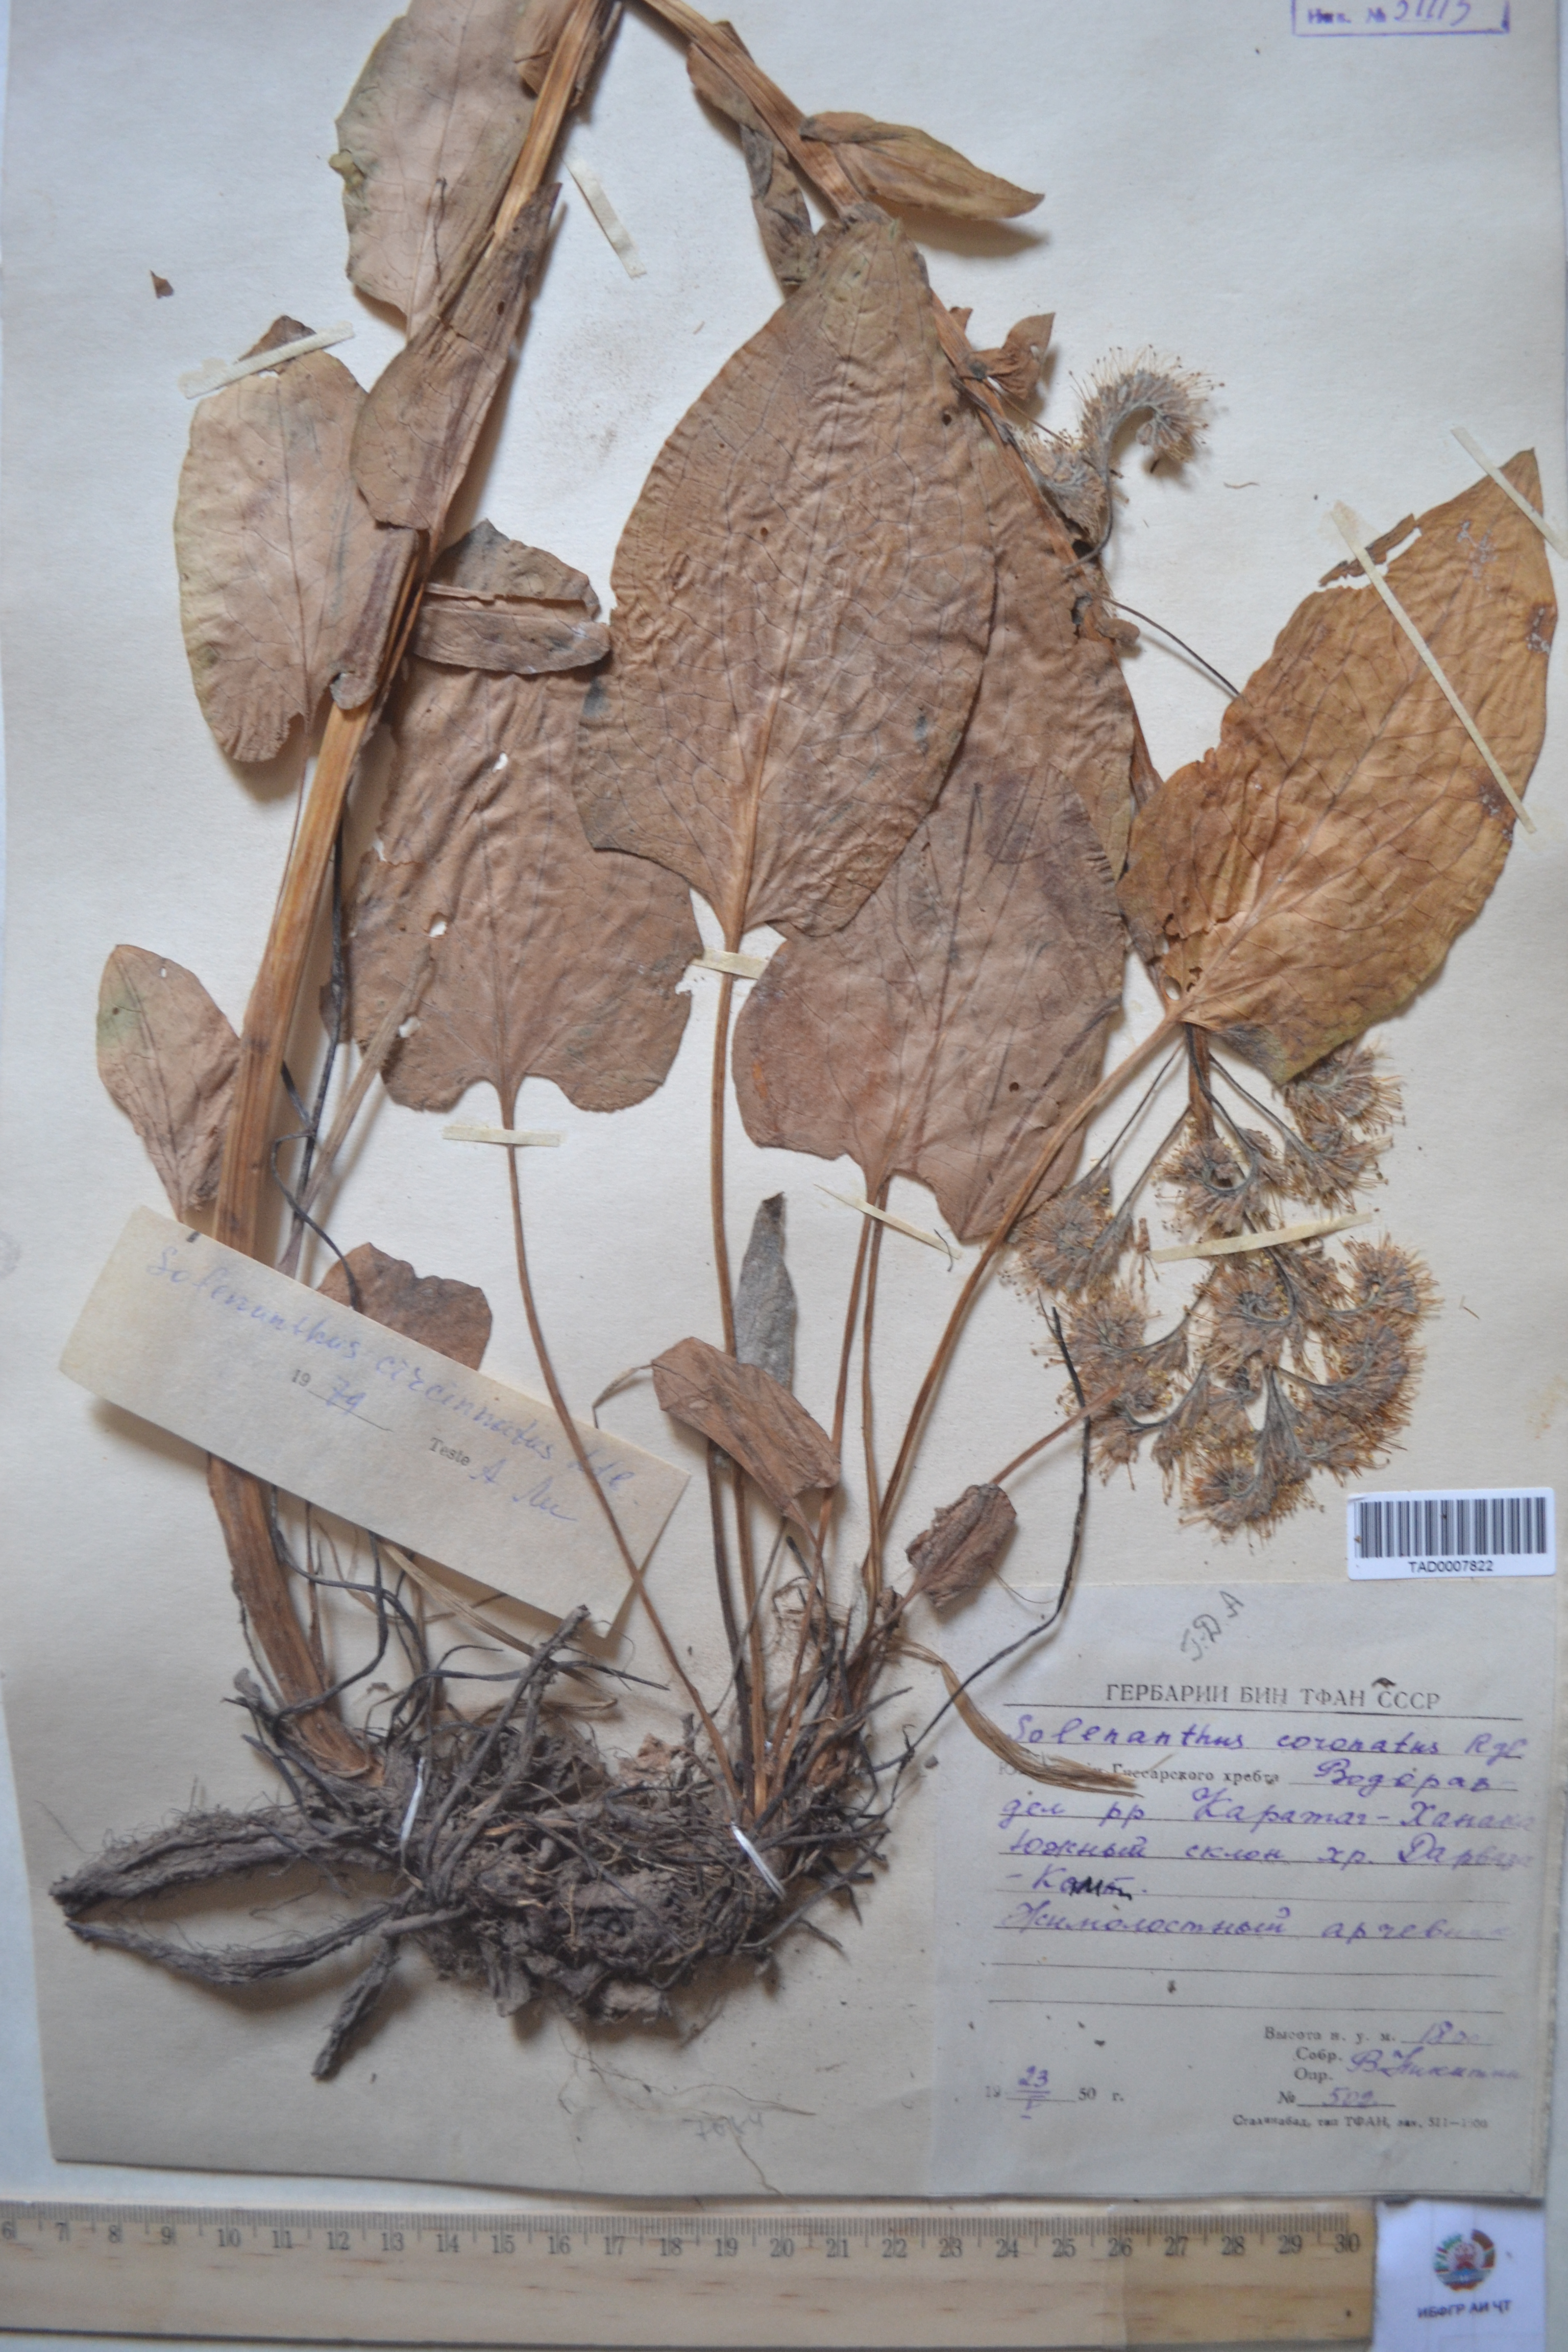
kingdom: Plantae
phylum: Tracheophyta
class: Magnoliopsida
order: Boraginales
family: Boraginaceae
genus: Solenanthus
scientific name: Solenanthus circinnatus
